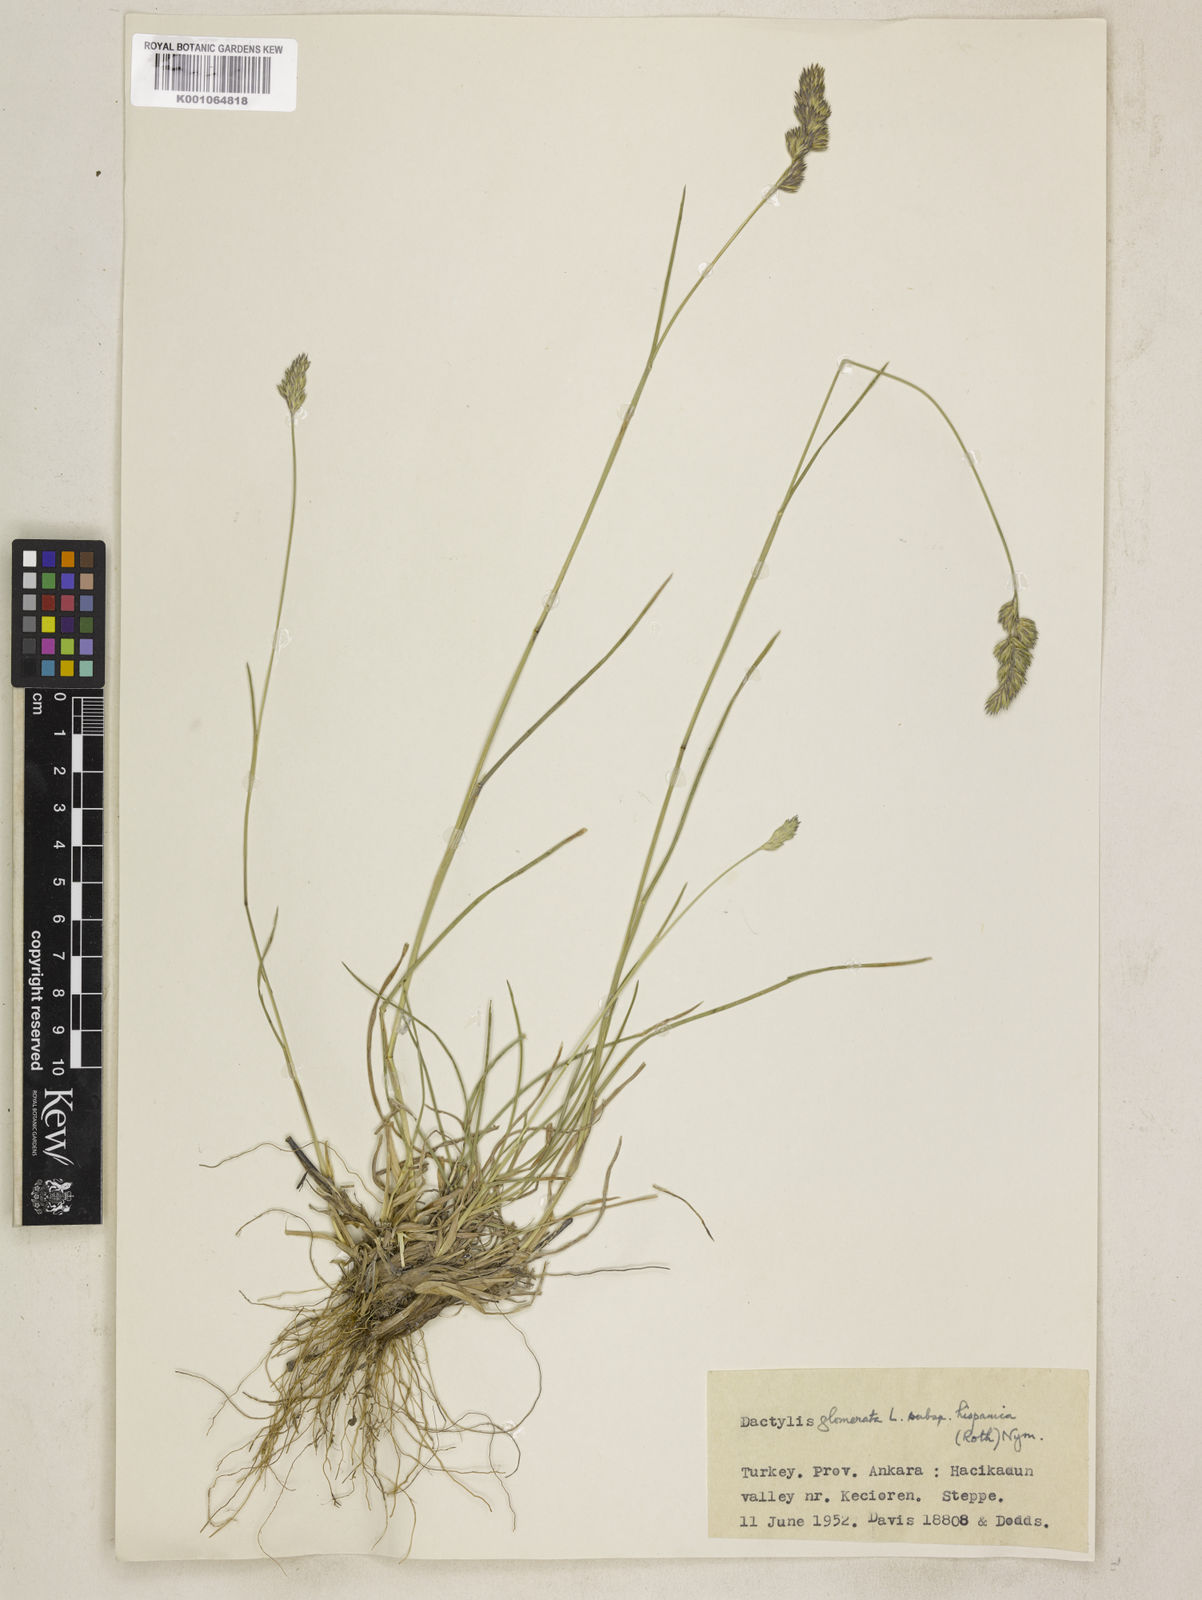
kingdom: Plantae
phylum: Tracheophyta
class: Liliopsida
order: Poales
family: Poaceae
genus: Dactylis
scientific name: Dactylis glomerata
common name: Orchardgrass
